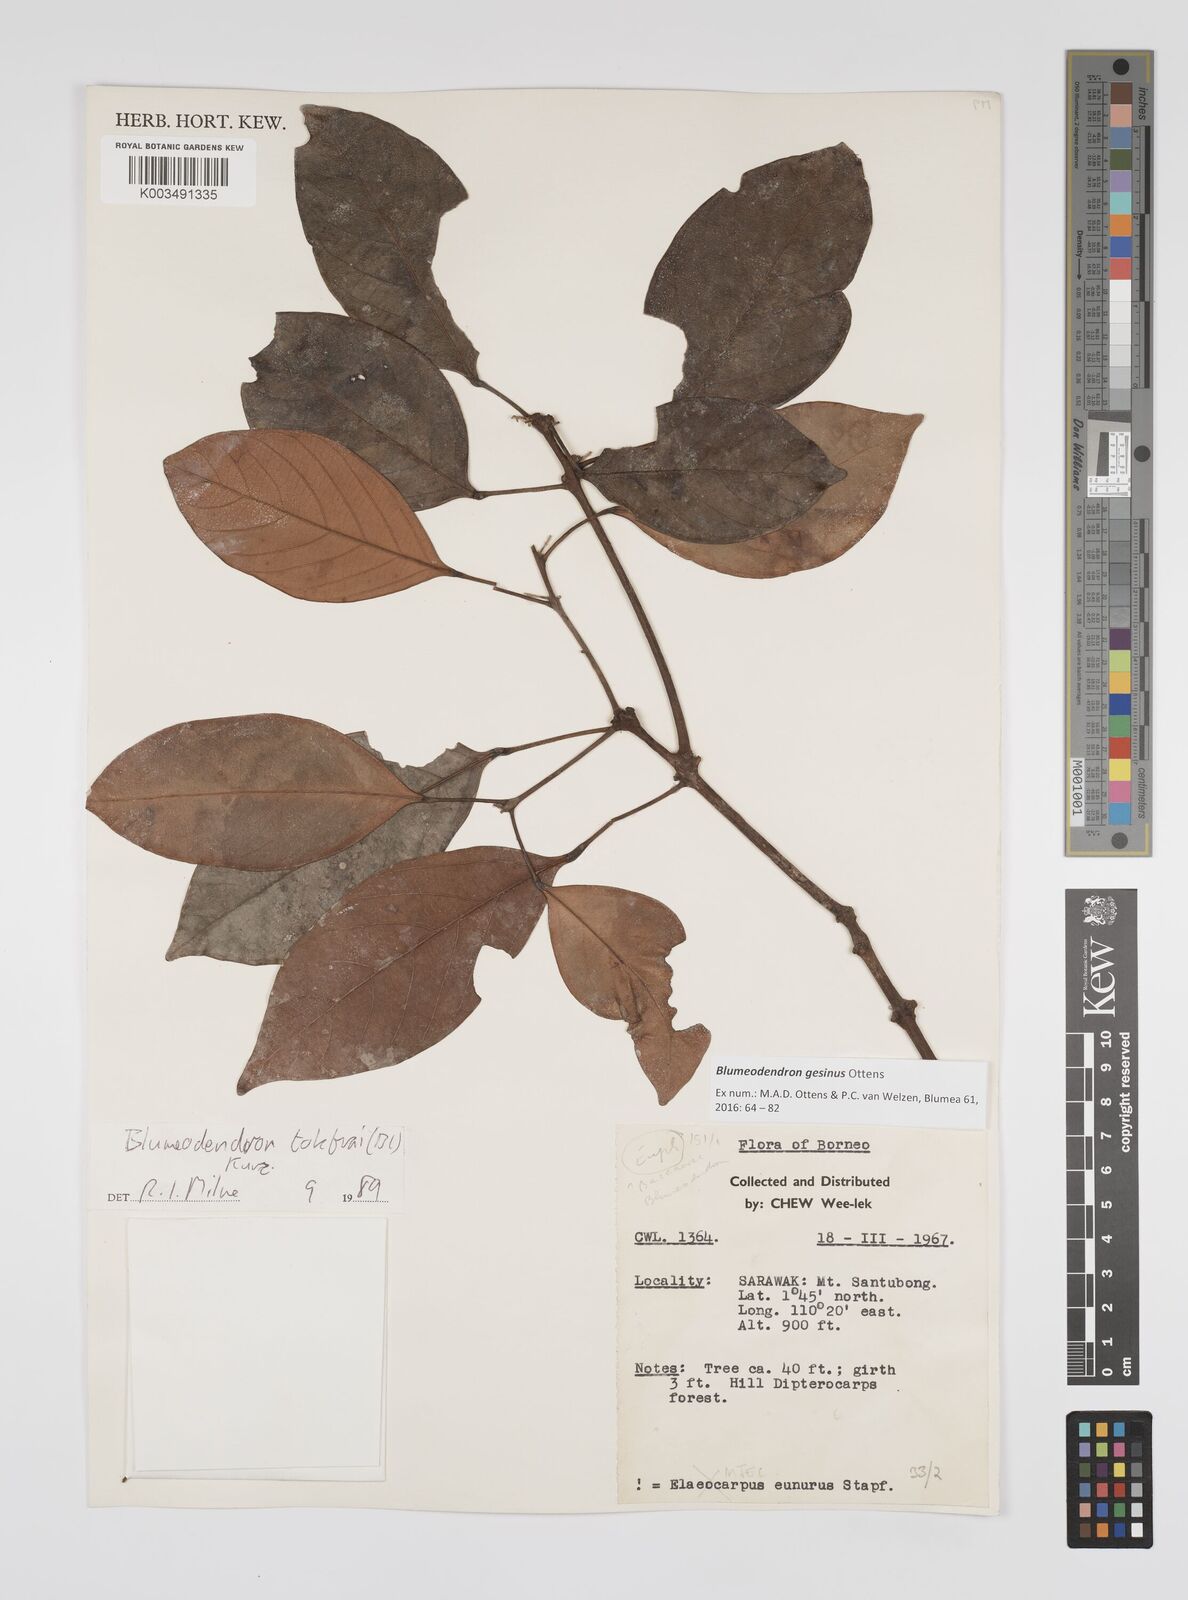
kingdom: Plantae
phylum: Tracheophyta
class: Magnoliopsida
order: Malpighiales
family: Euphorbiaceae
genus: Blumeodendron
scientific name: Blumeodendron gesinus
